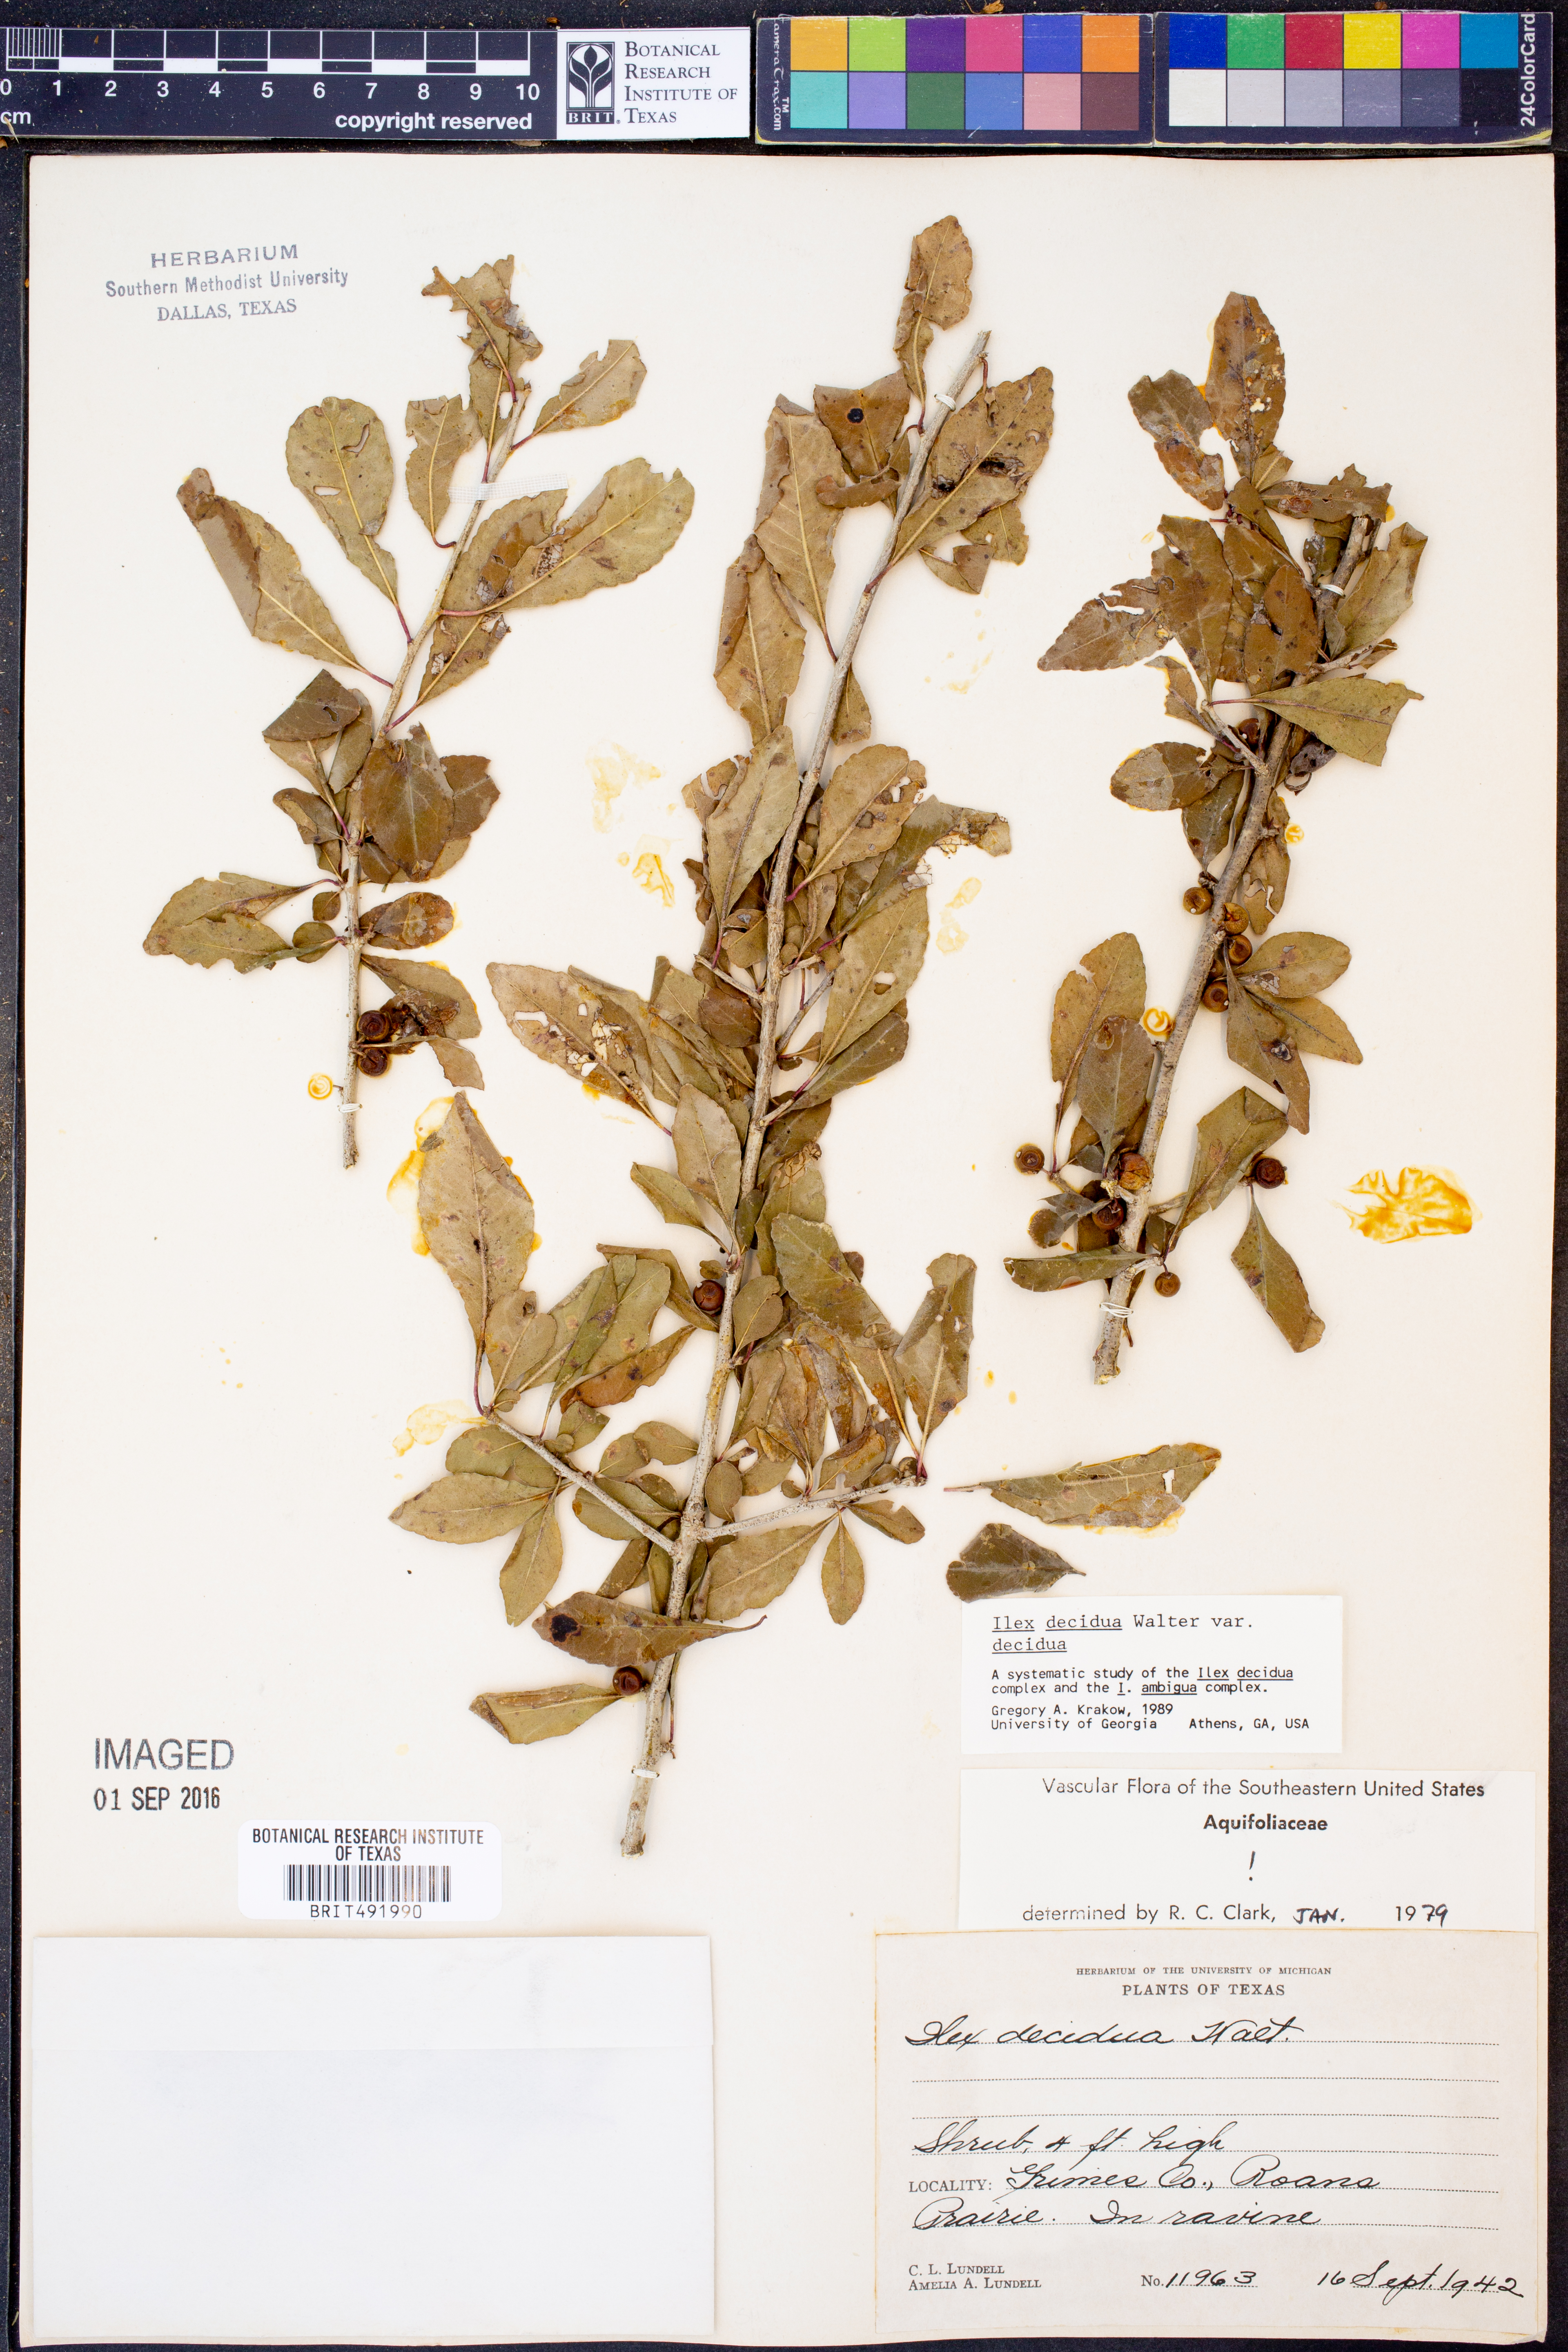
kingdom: Plantae
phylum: Tracheophyta
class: Magnoliopsida
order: Aquifoliales
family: Aquifoliaceae
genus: Ilex
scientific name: Ilex decidua
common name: Possum-haw
